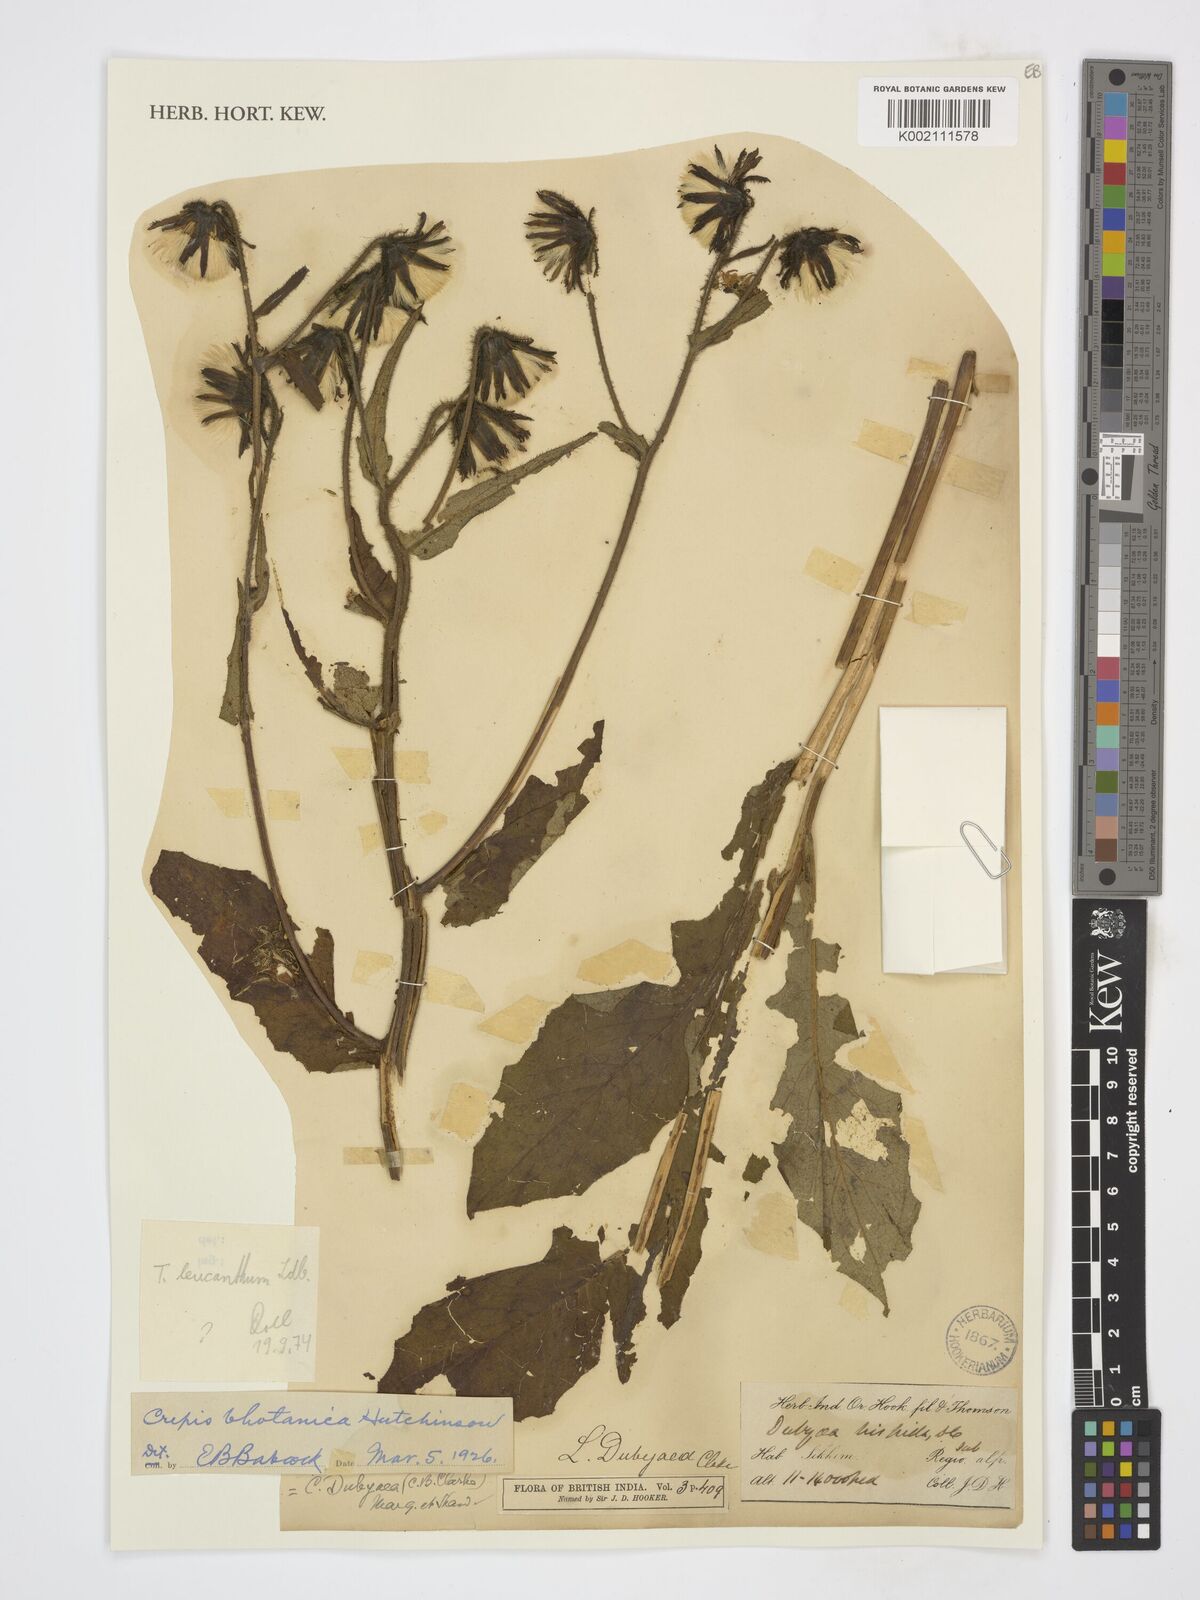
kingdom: Plantae
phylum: Tracheophyta
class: Magnoliopsida
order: Asterales
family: Asteraceae
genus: Dubyaea
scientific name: Dubyaea hispida
